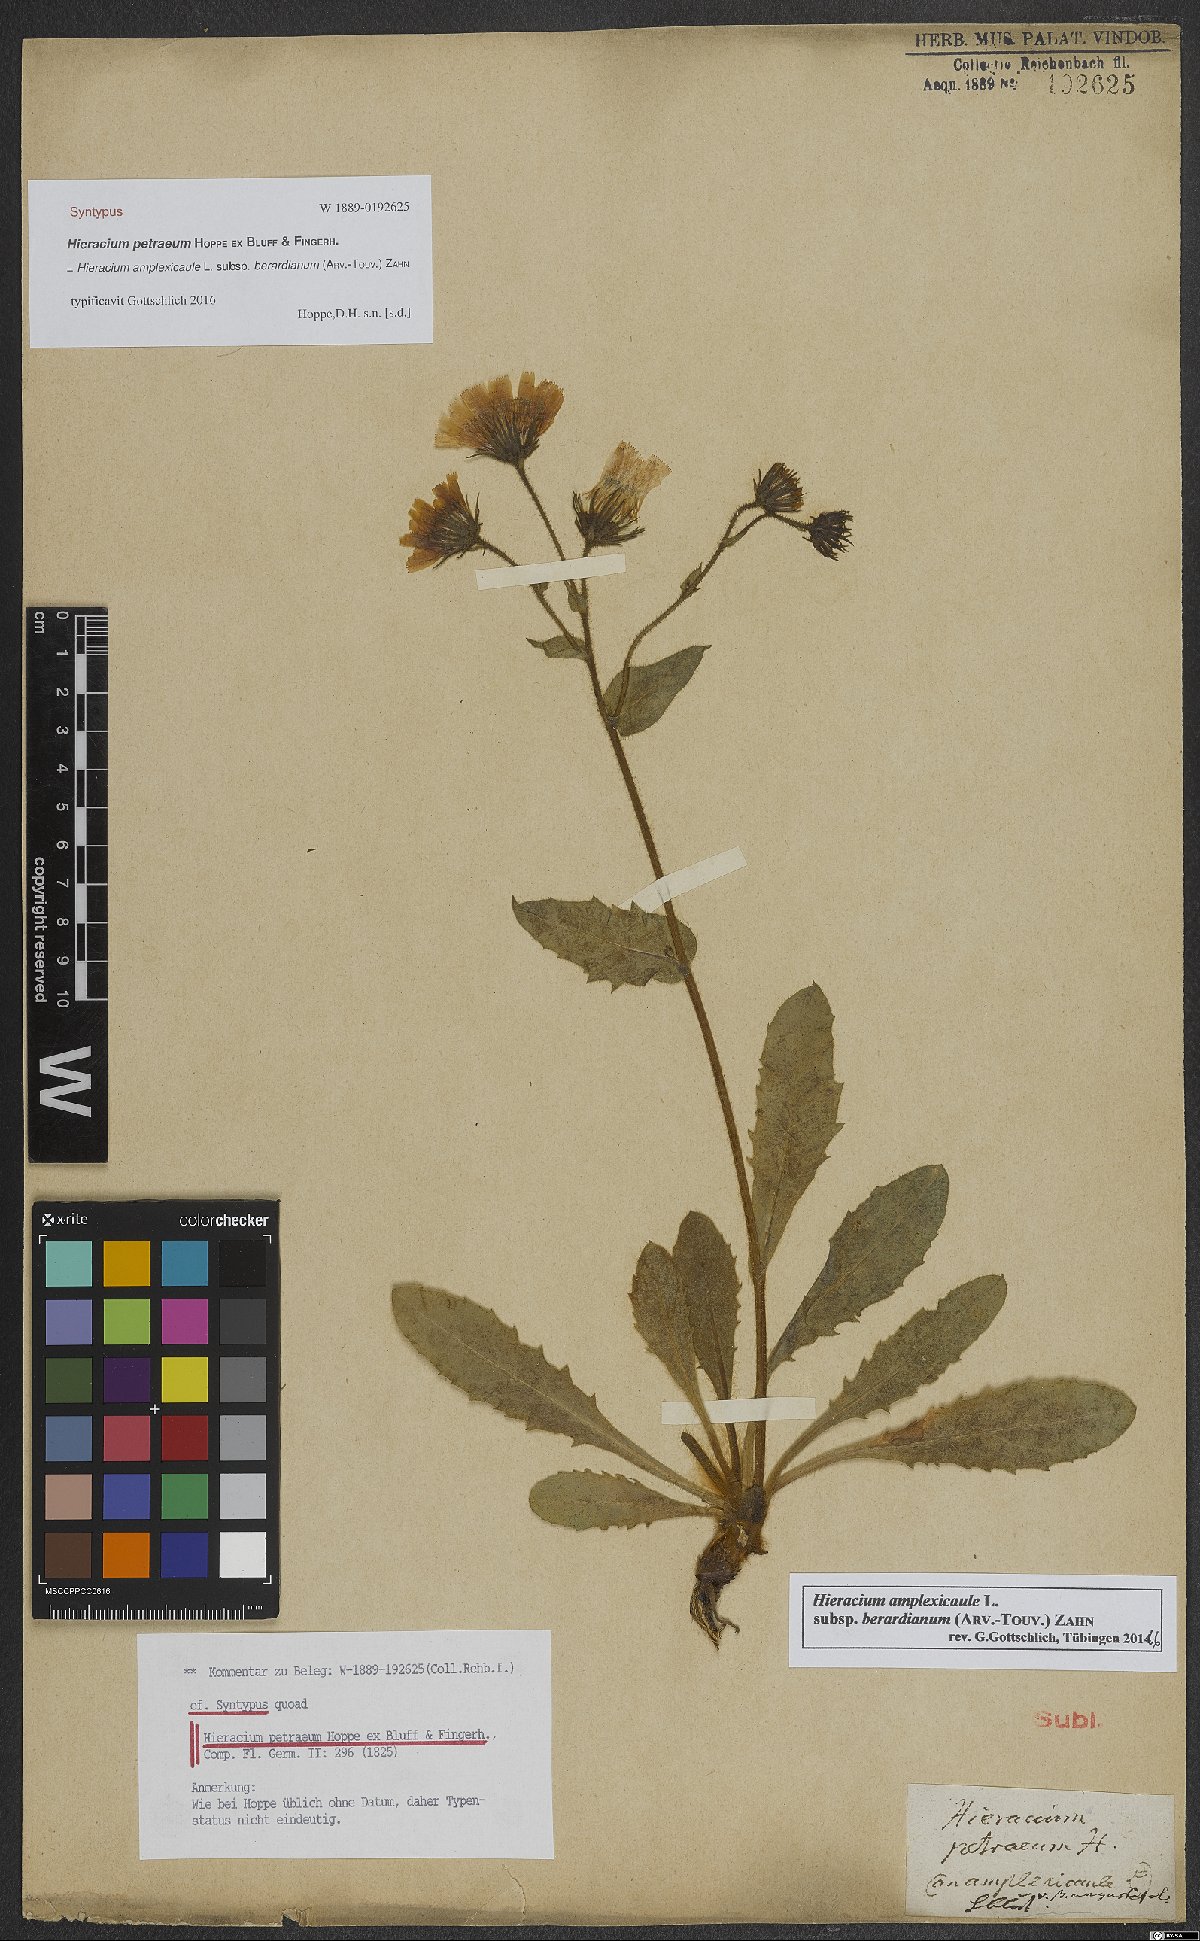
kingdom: Plantae
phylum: Tracheophyta
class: Magnoliopsida
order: Asterales
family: Asteraceae
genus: Hieracium
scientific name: Hieracium amplexicaule
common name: Sticky hawkweed
